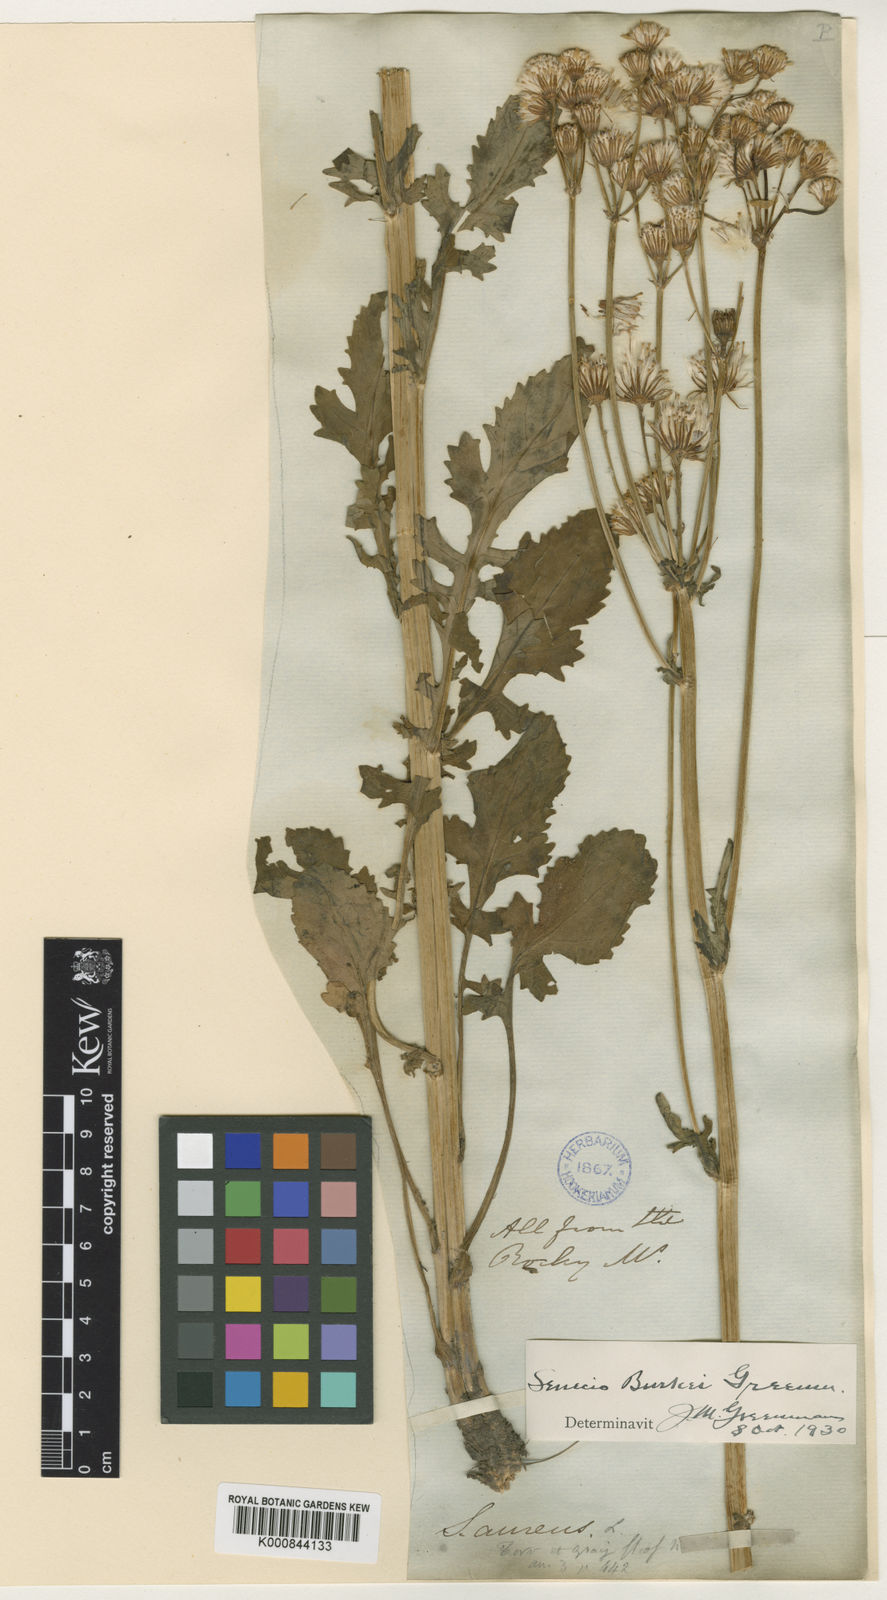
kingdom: Plantae
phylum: Tracheophyta
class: Magnoliopsida
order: Asterales
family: Asteraceae
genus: Packera
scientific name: Packera
